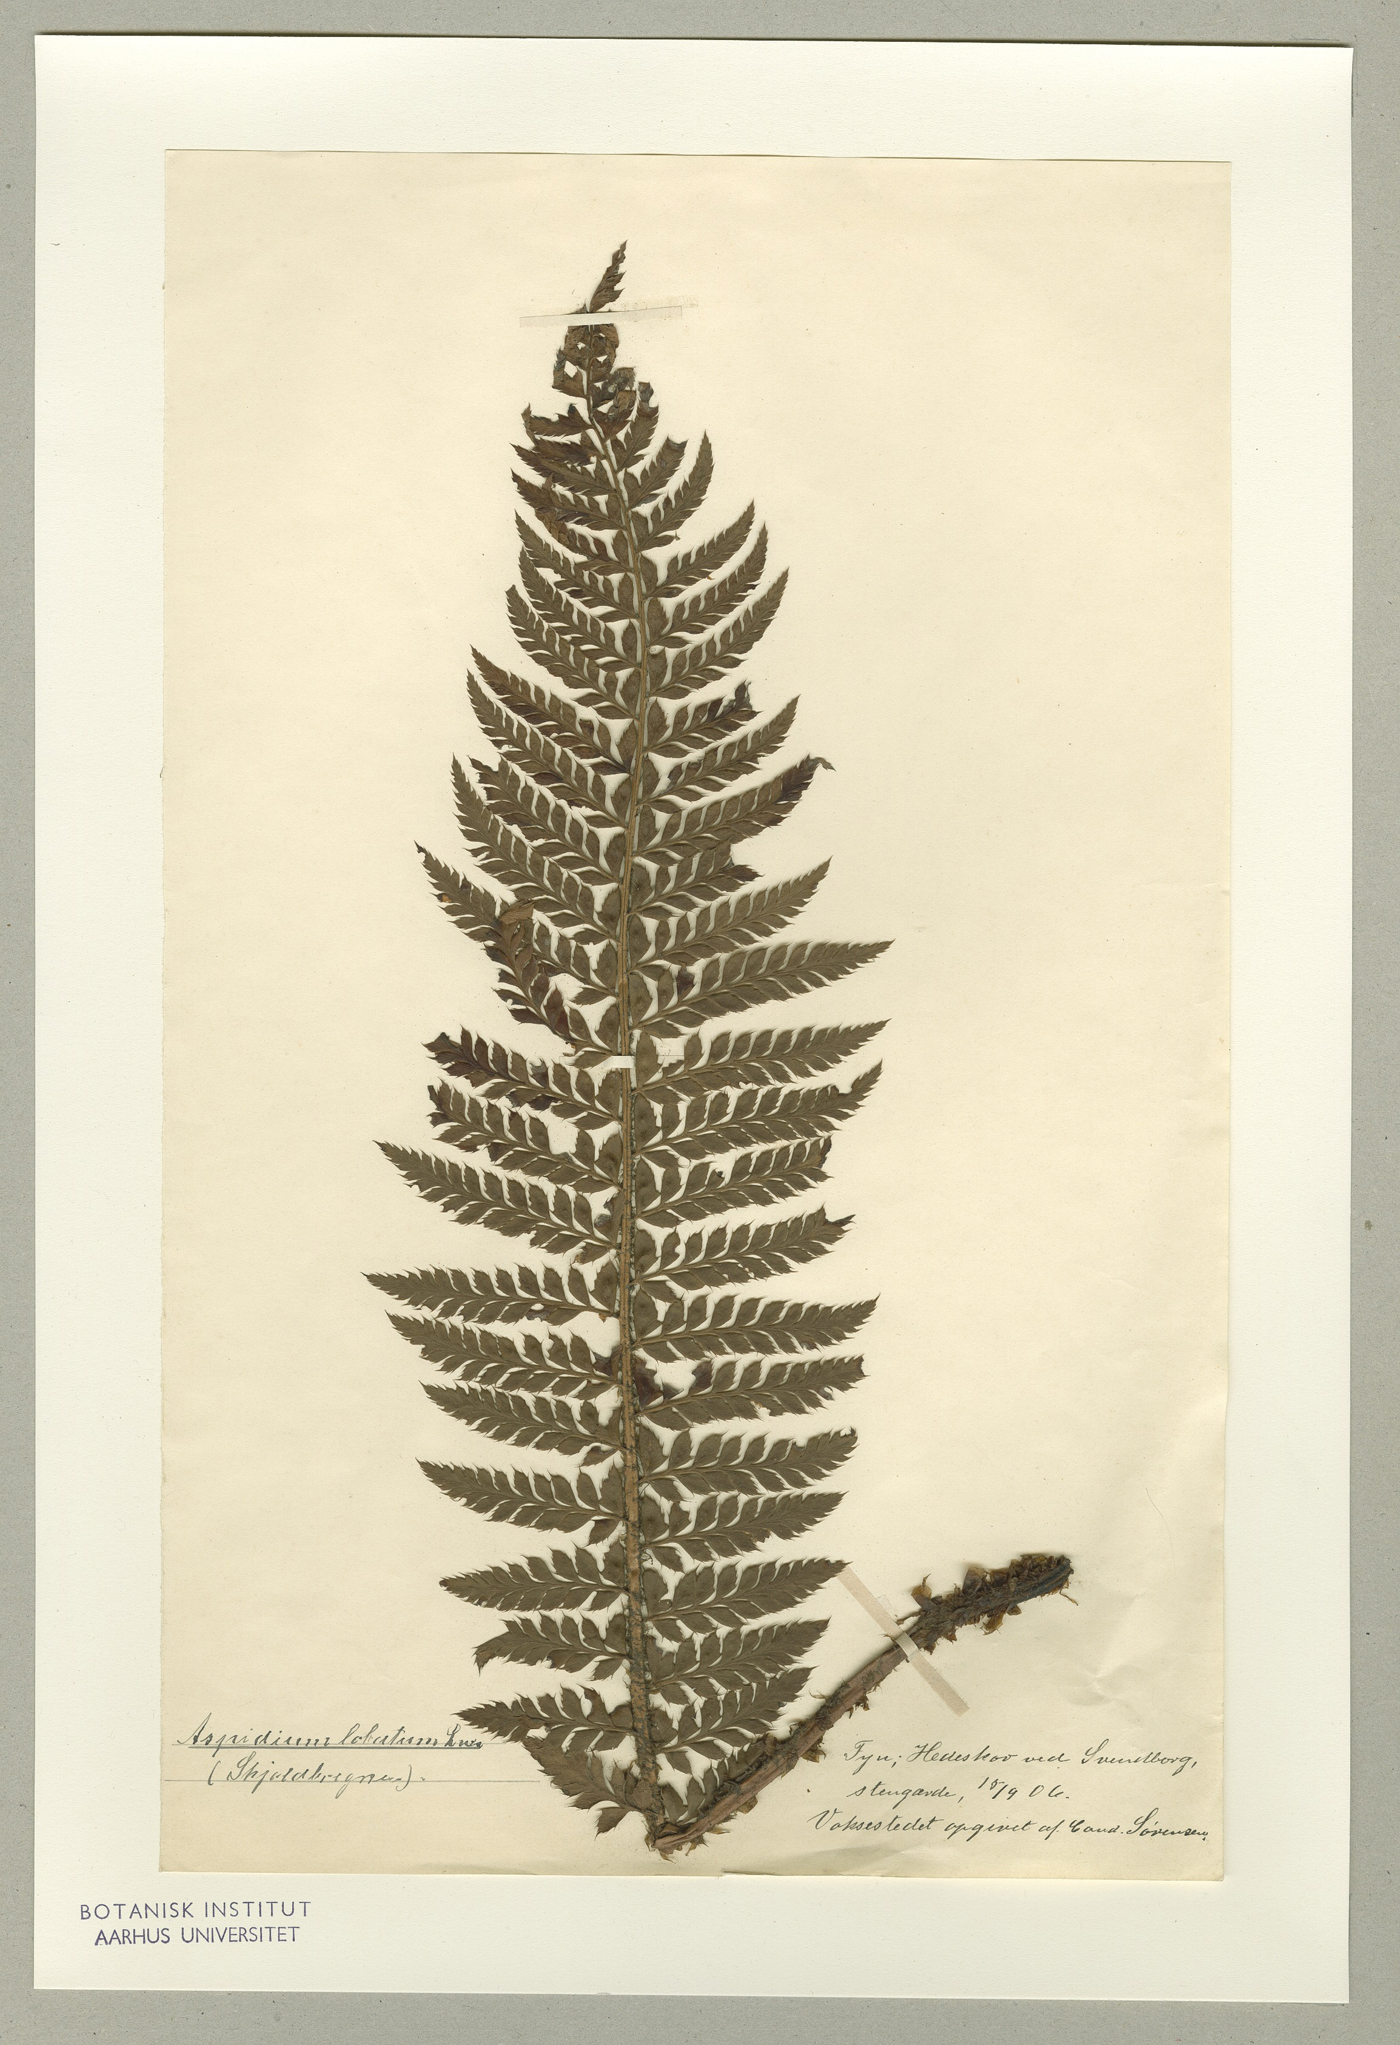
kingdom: Plantae
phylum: Tracheophyta
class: Polypodiopsida
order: Polypodiales
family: Dryopteridaceae
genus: Polystichum
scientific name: Polystichum aculeatum
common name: Hard shield-fern
